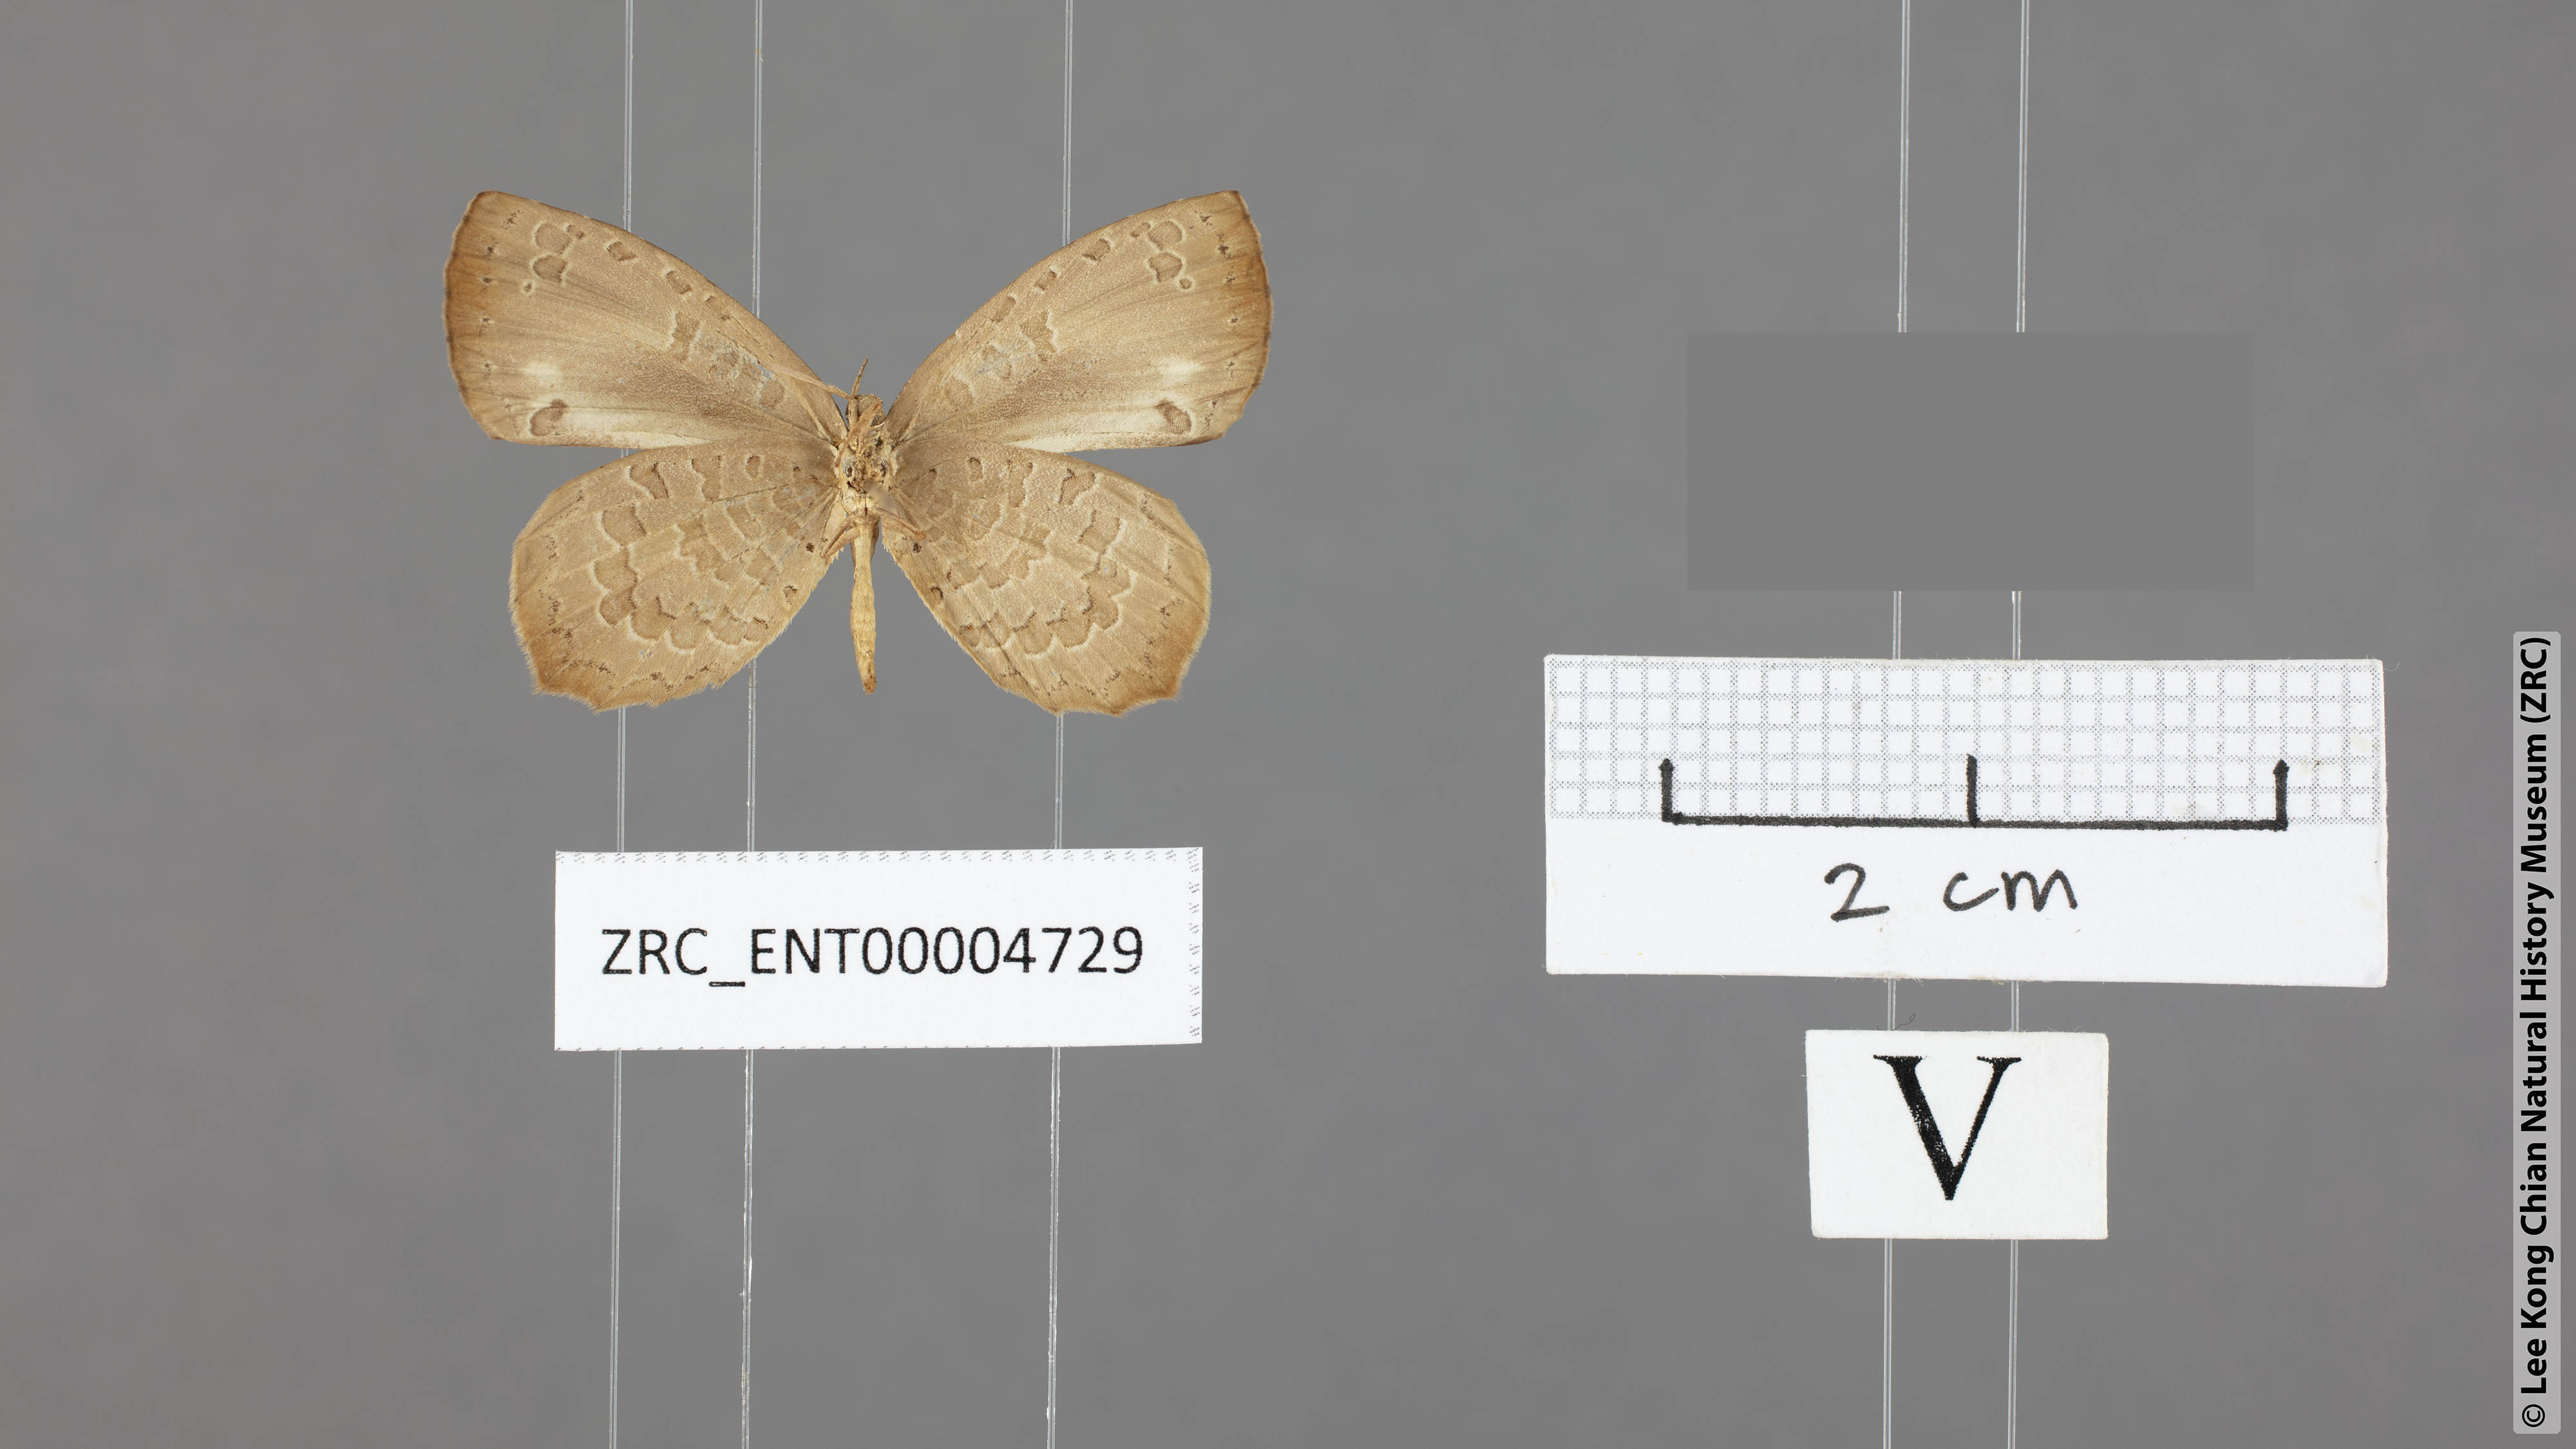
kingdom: Animalia
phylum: Arthropoda
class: Insecta
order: Lepidoptera
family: Lycaenidae
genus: Miletus
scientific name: Miletus chinensis
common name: Common brownie
